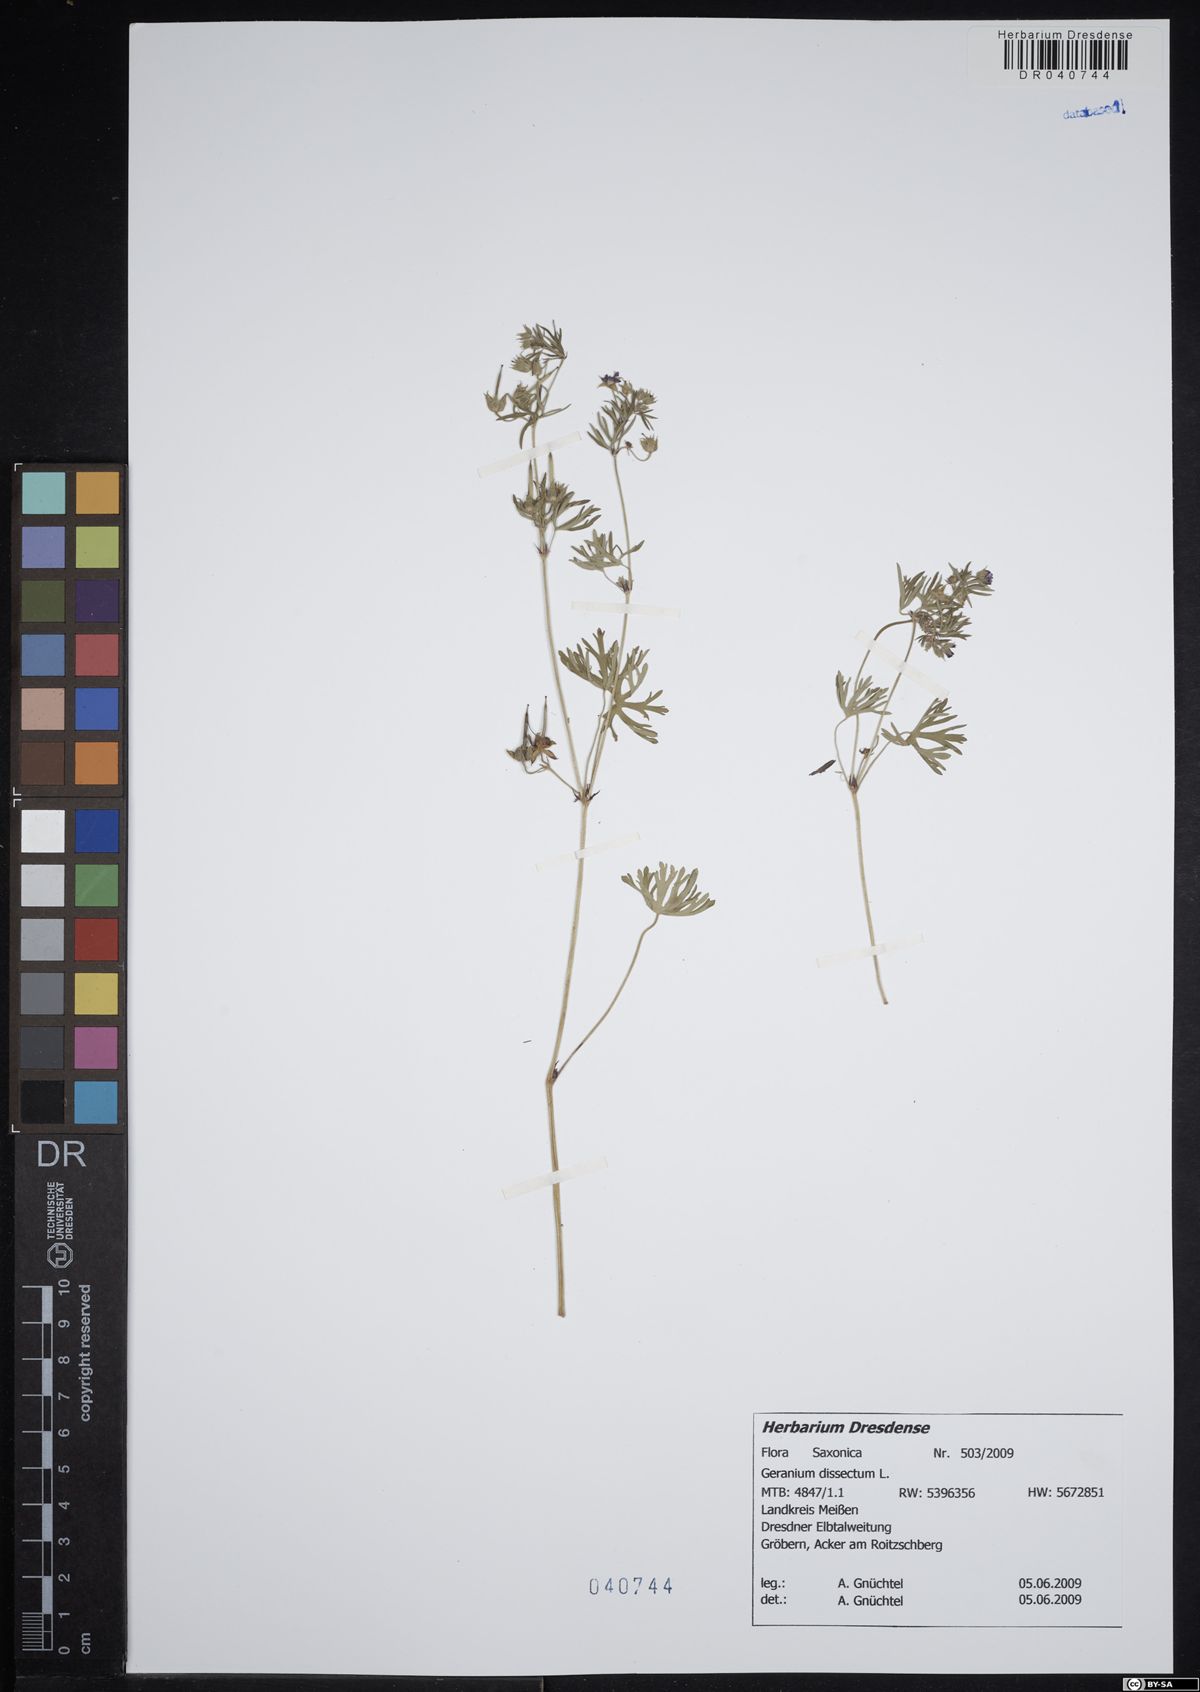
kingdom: Plantae
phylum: Tracheophyta
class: Magnoliopsida
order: Geraniales
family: Geraniaceae
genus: Geranium
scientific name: Geranium dissectum
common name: Cut-leaved crane's-bill
